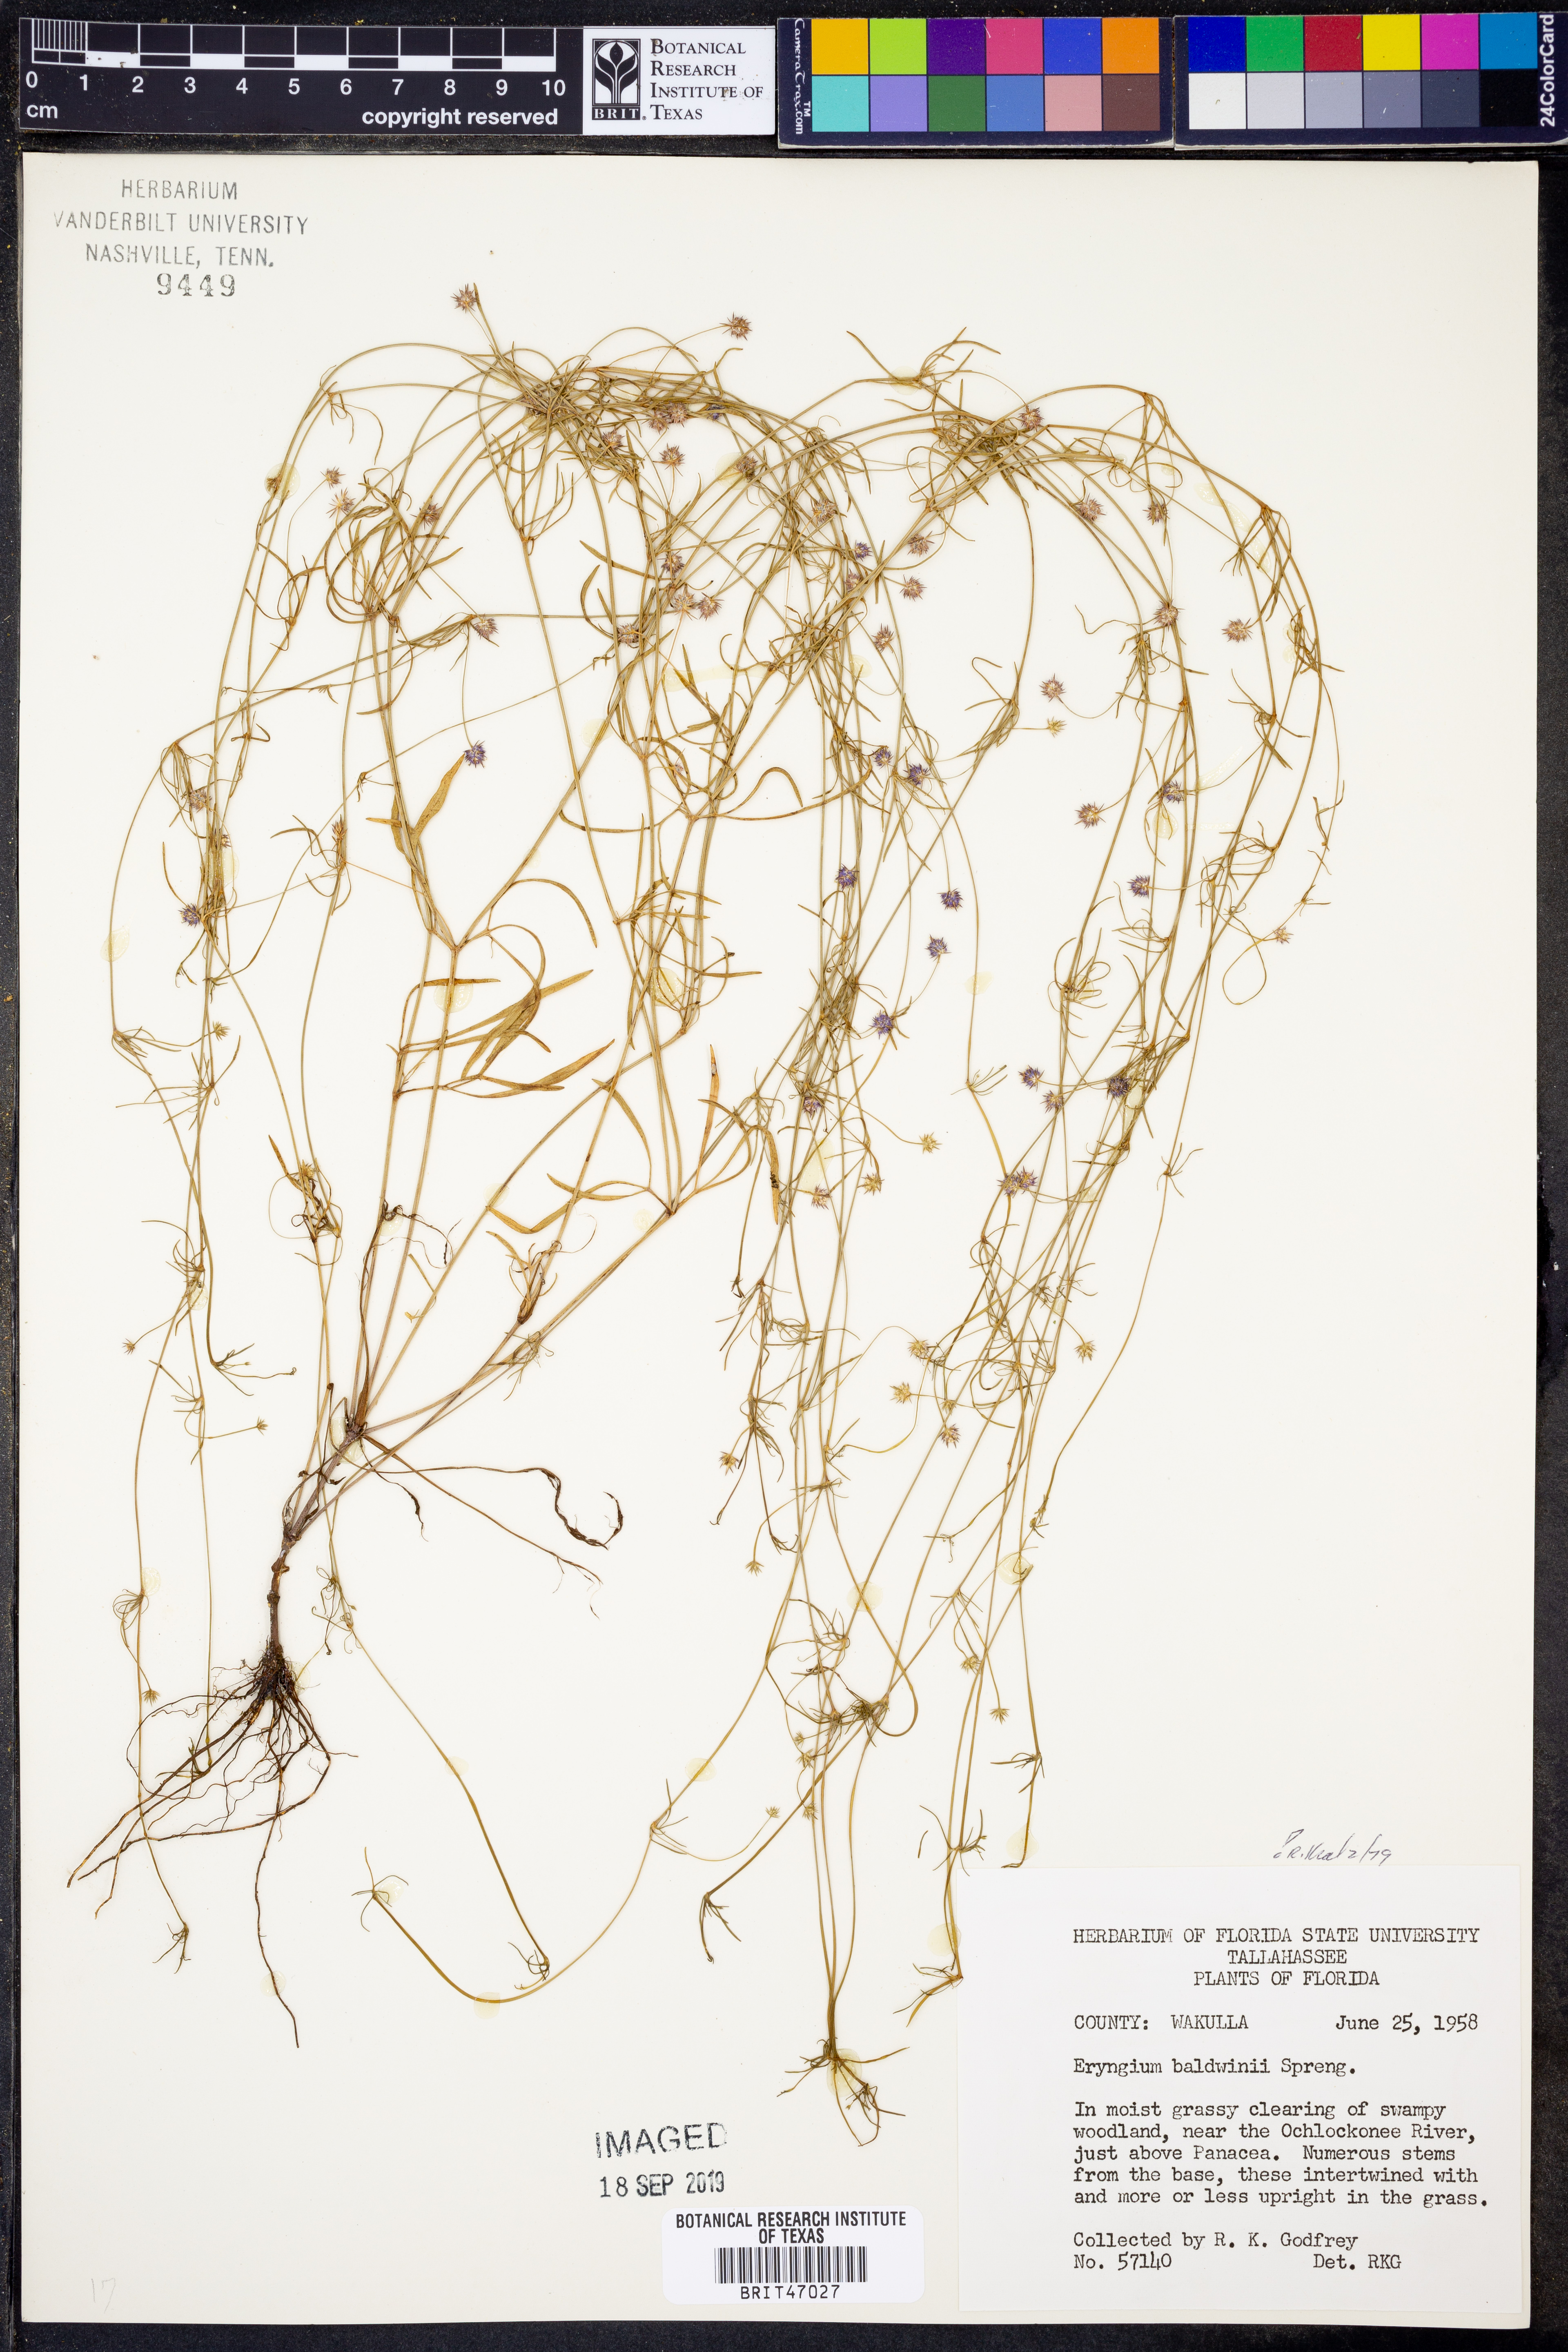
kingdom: Plantae
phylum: Tracheophyta
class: Magnoliopsida
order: Apiales
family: Apiaceae
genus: Eryngium
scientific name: Eryngium baldwinii
